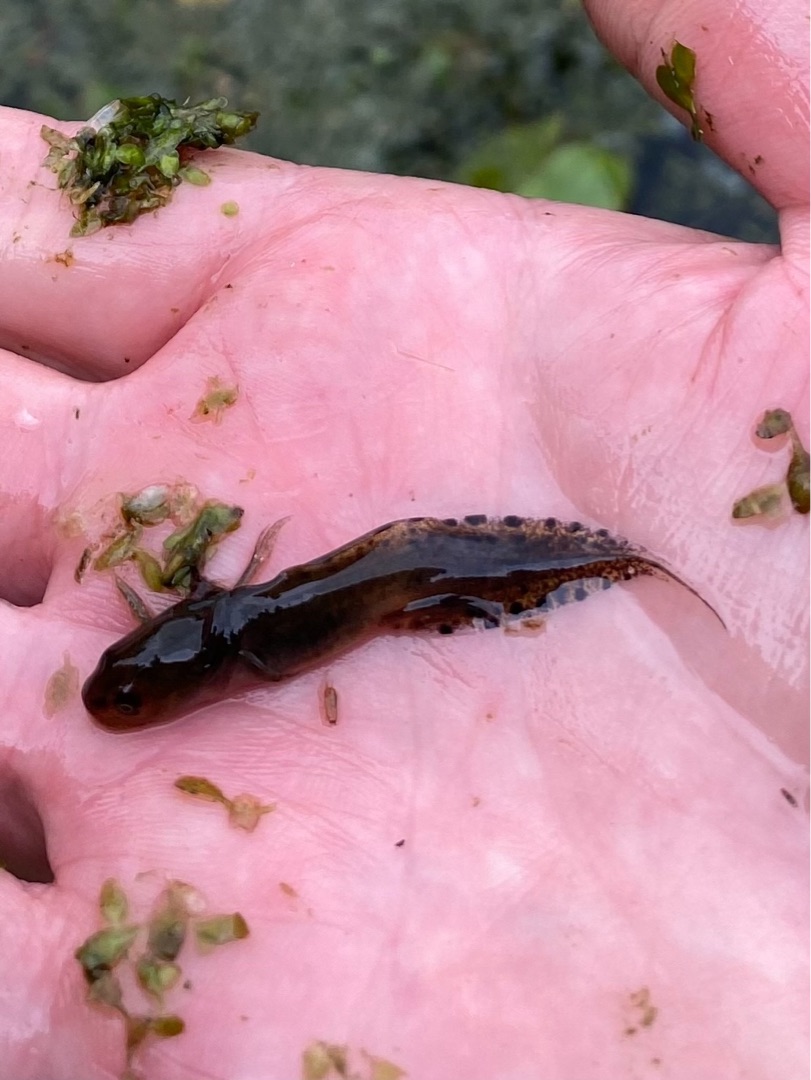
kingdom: Animalia
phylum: Chordata
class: Amphibia
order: Caudata
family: Salamandridae
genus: Triturus
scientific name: Triturus cristatus
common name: Stor vandsalamander
